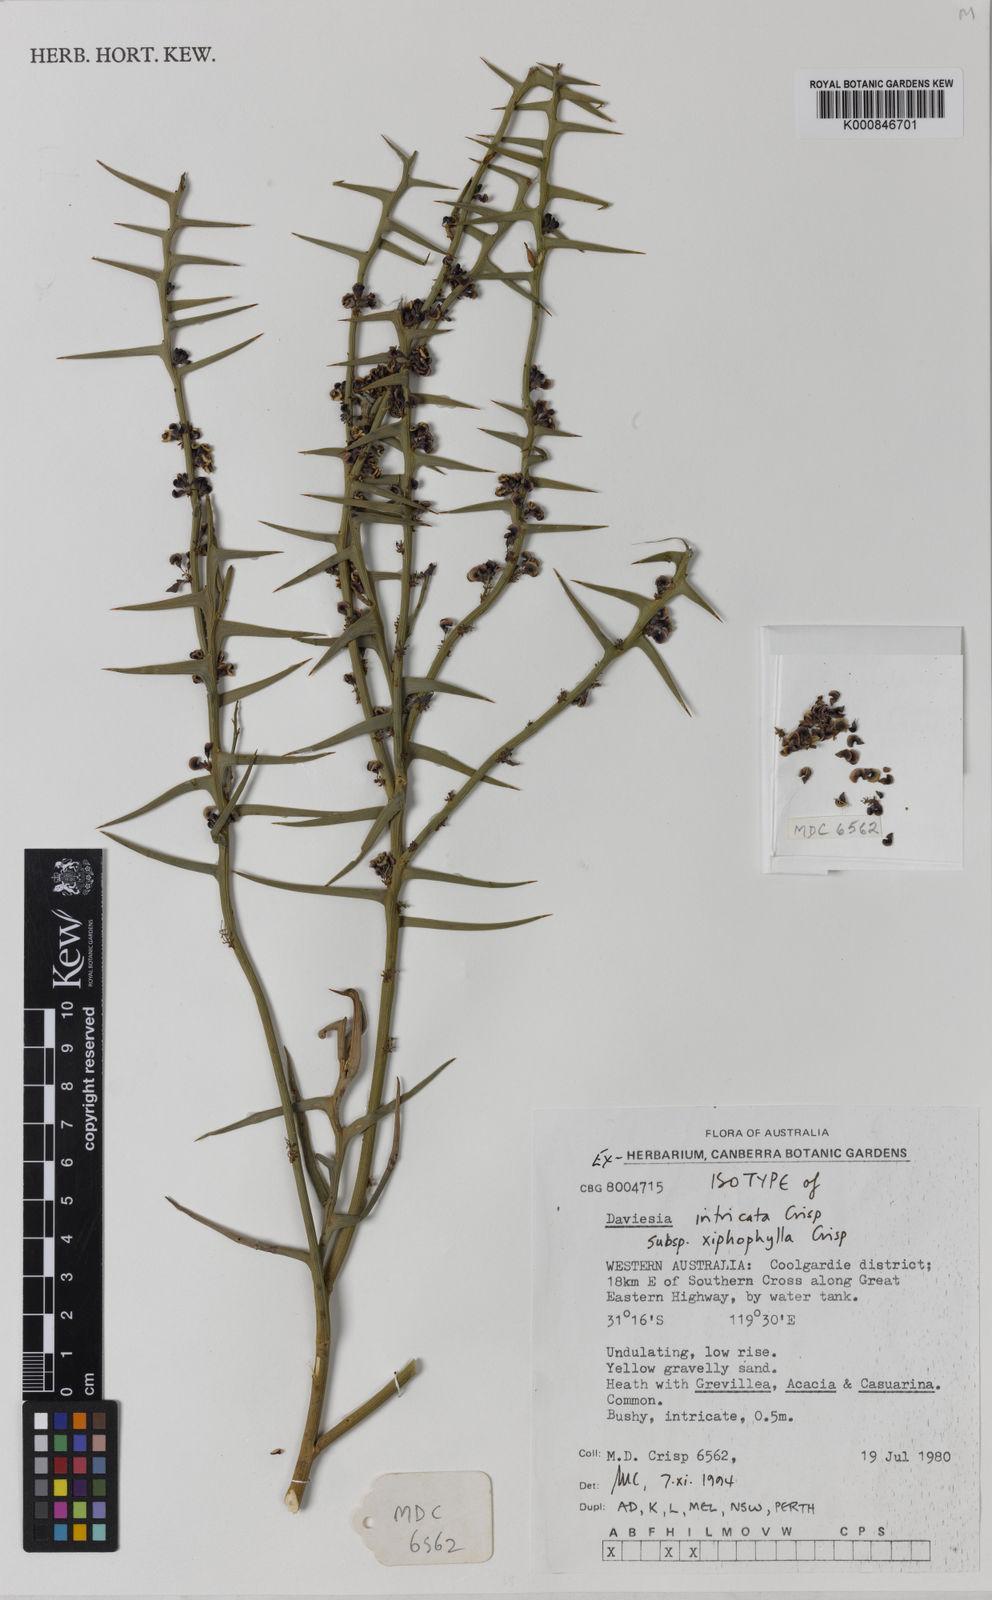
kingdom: Plantae
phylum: Tracheophyta
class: Magnoliopsida
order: Fabales
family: Fabaceae
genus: Daviesia
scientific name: Daviesia intricata
